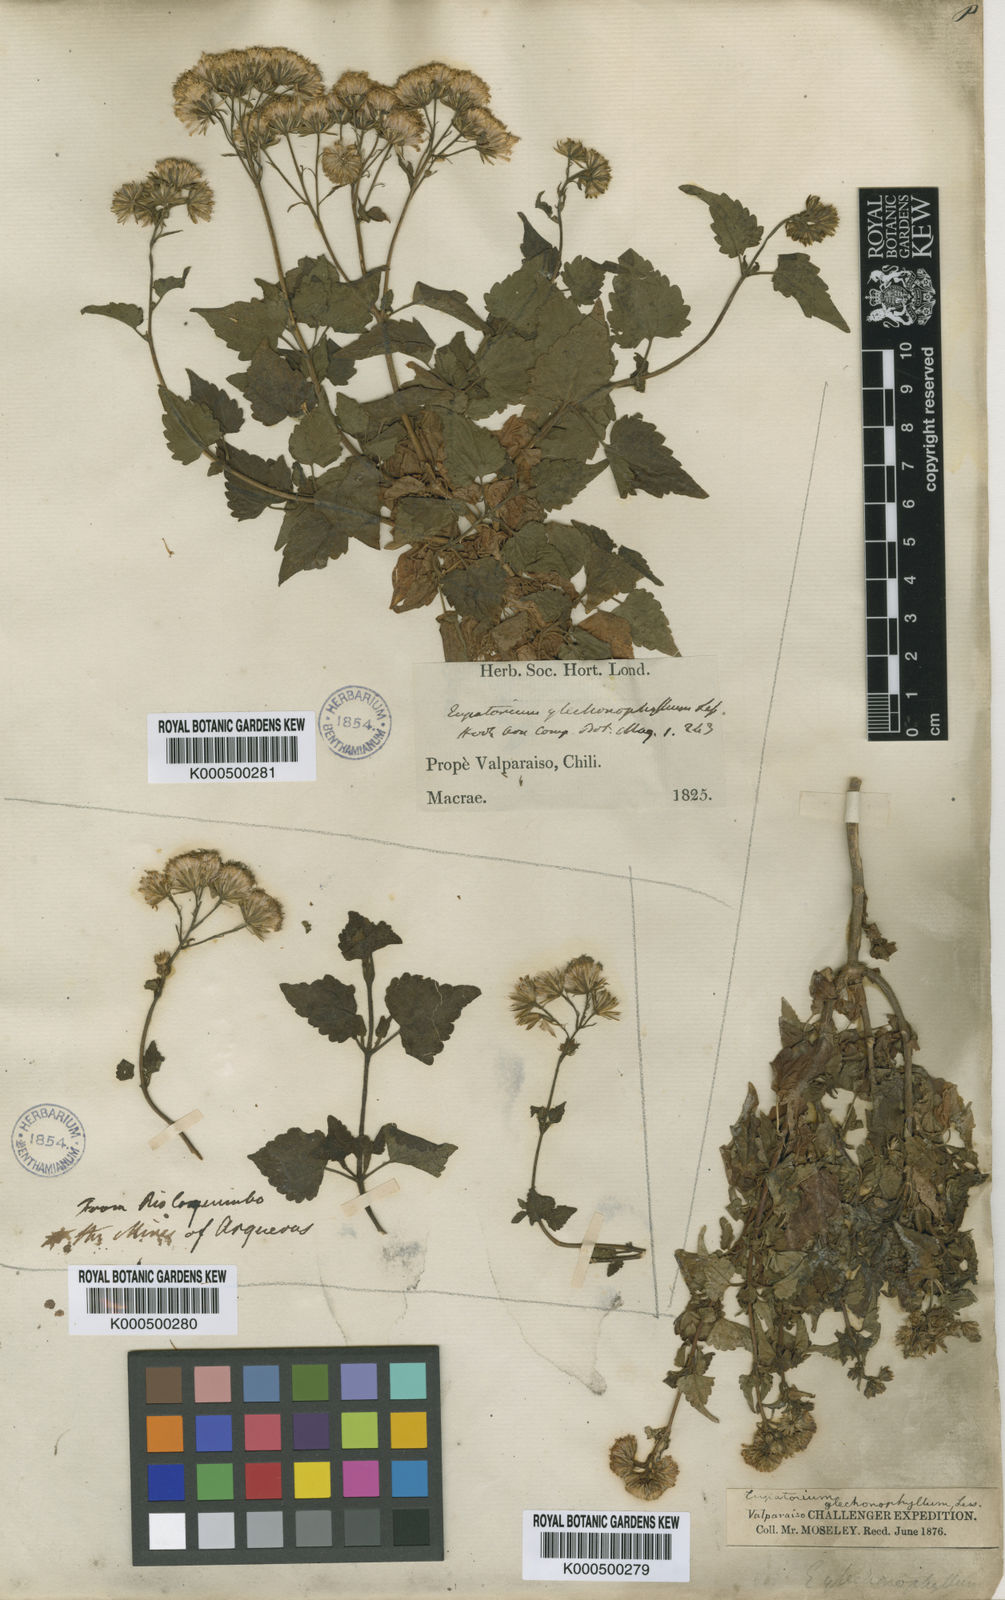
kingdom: Plantae
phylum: Tracheophyta
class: Magnoliopsida
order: Asterales
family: Asteraceae
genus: Ageratina
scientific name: Ageratina glechonophylla
